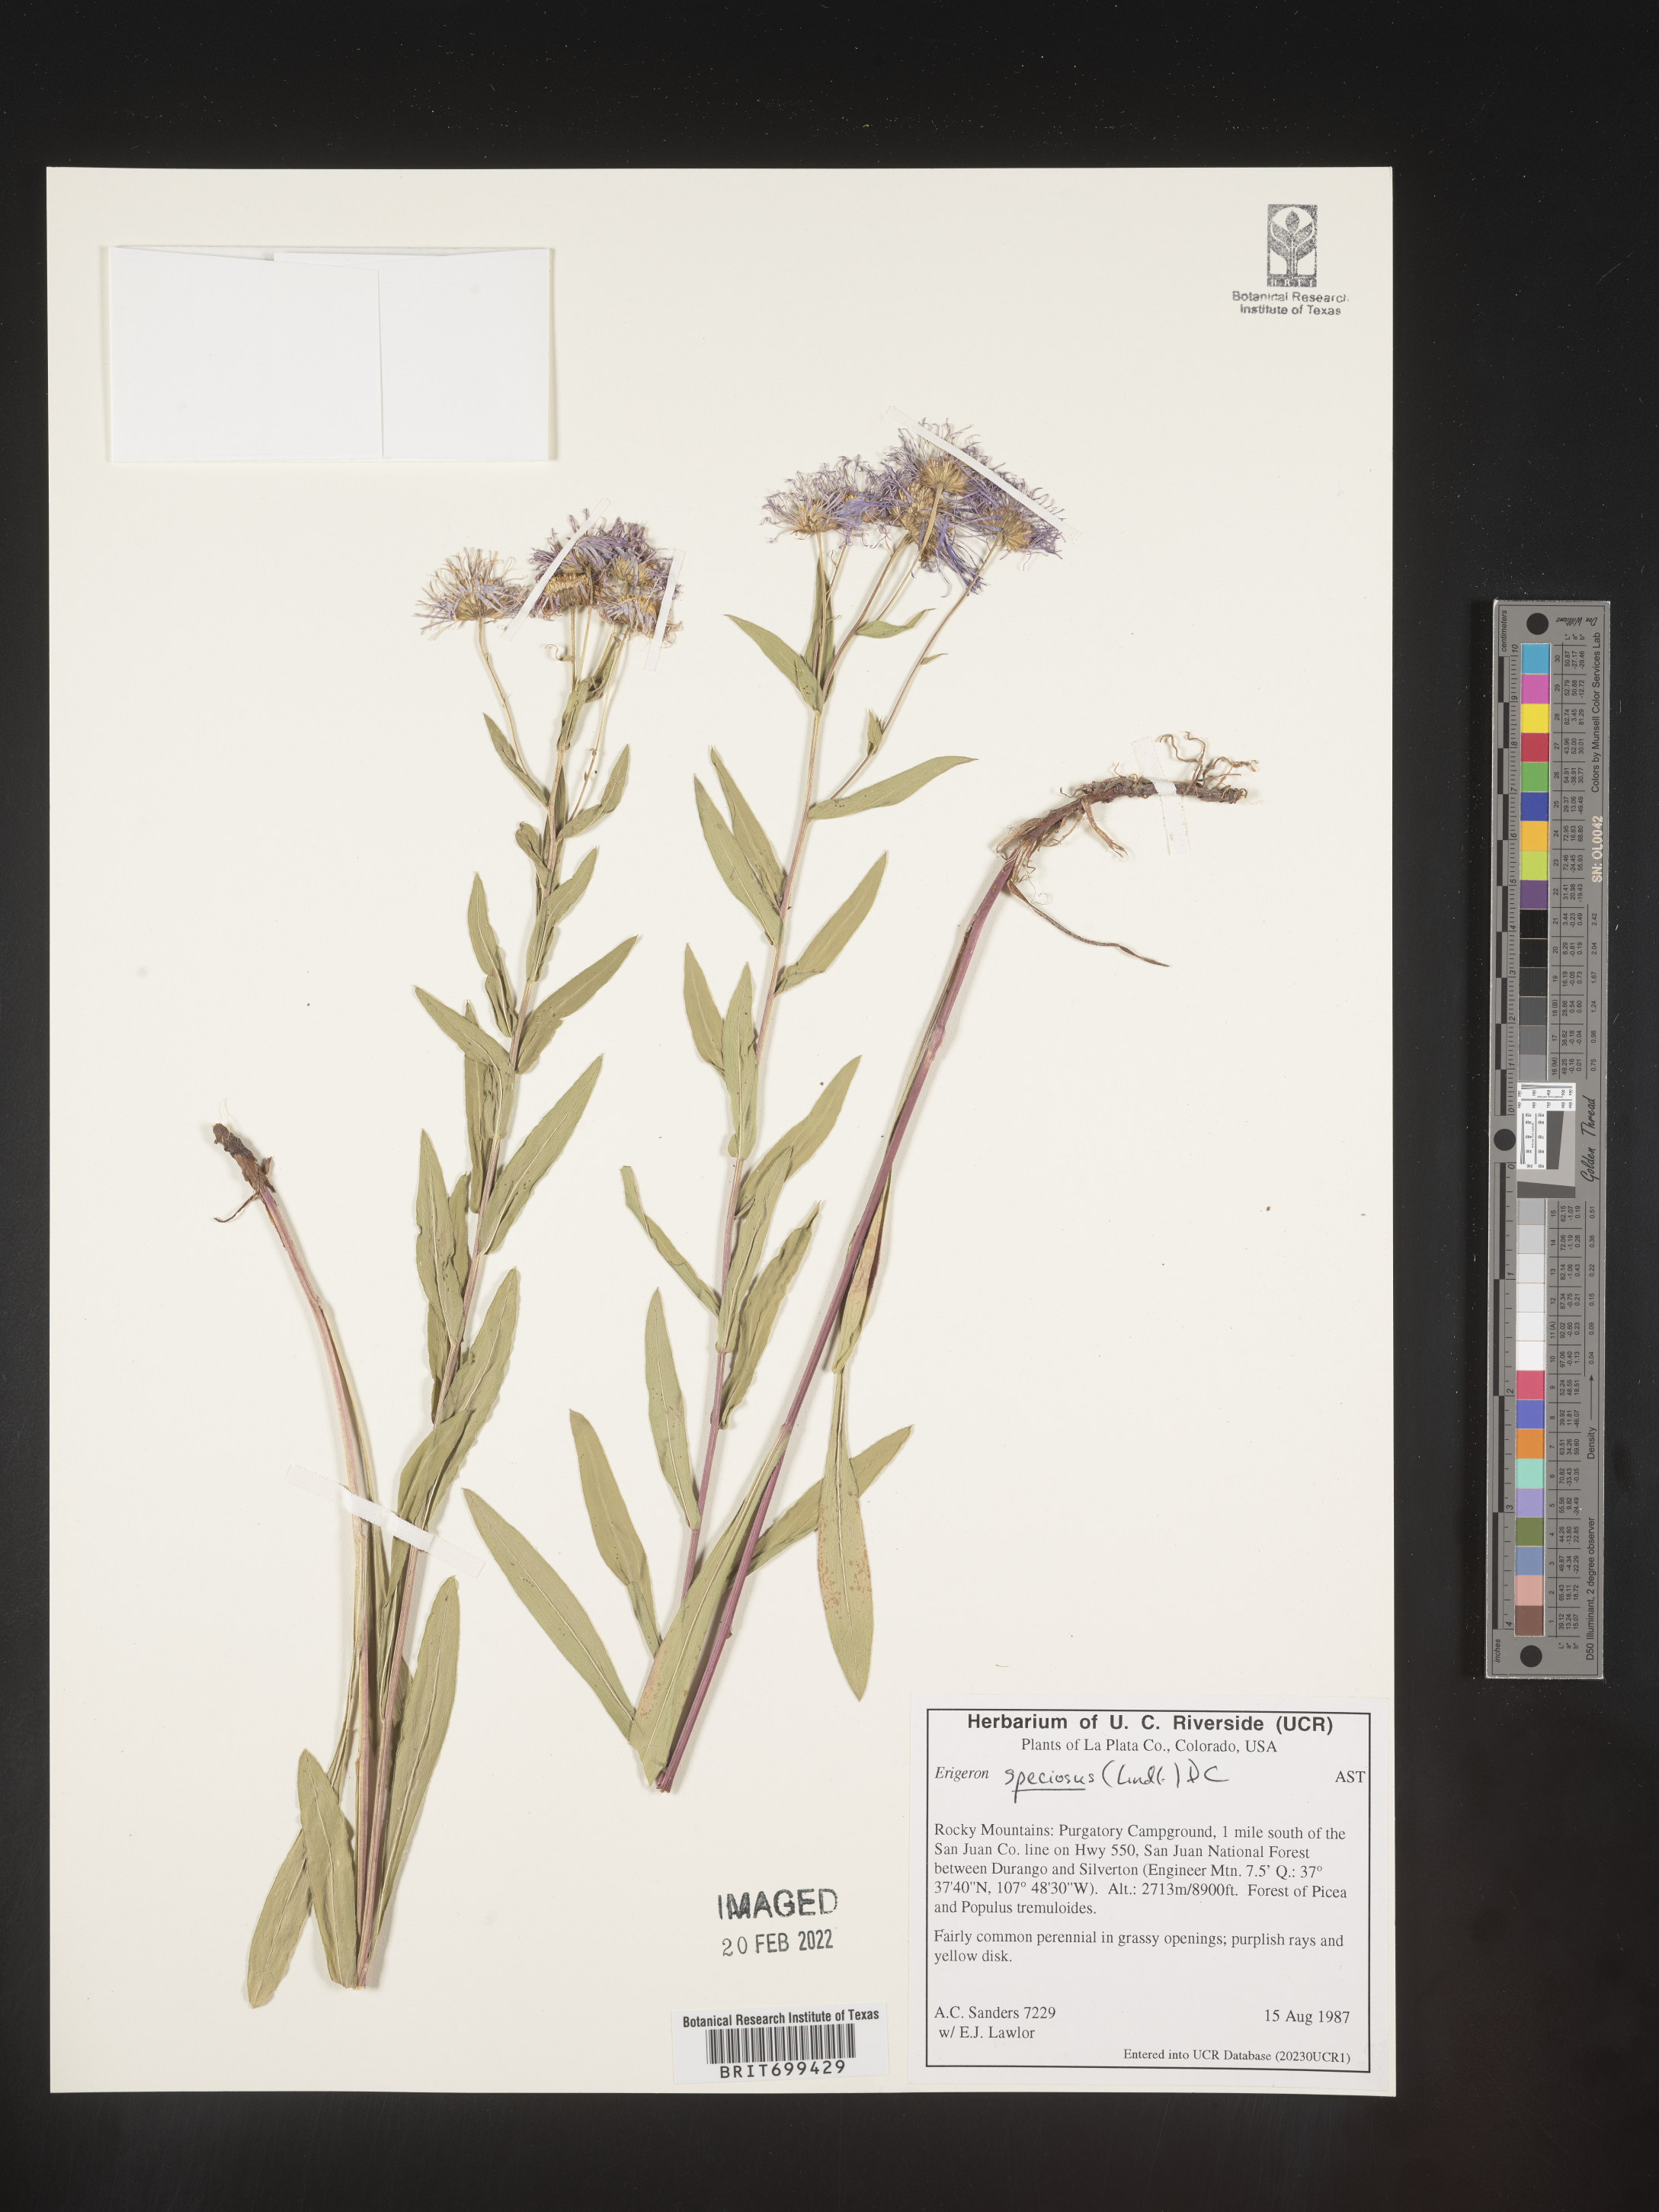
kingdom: Plantae
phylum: Tracheophyta
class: Magnoliopsida
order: Asterales
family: Asteraceae
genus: Erigeron
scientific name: Erigeron speciosus
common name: Aspen fleabane
